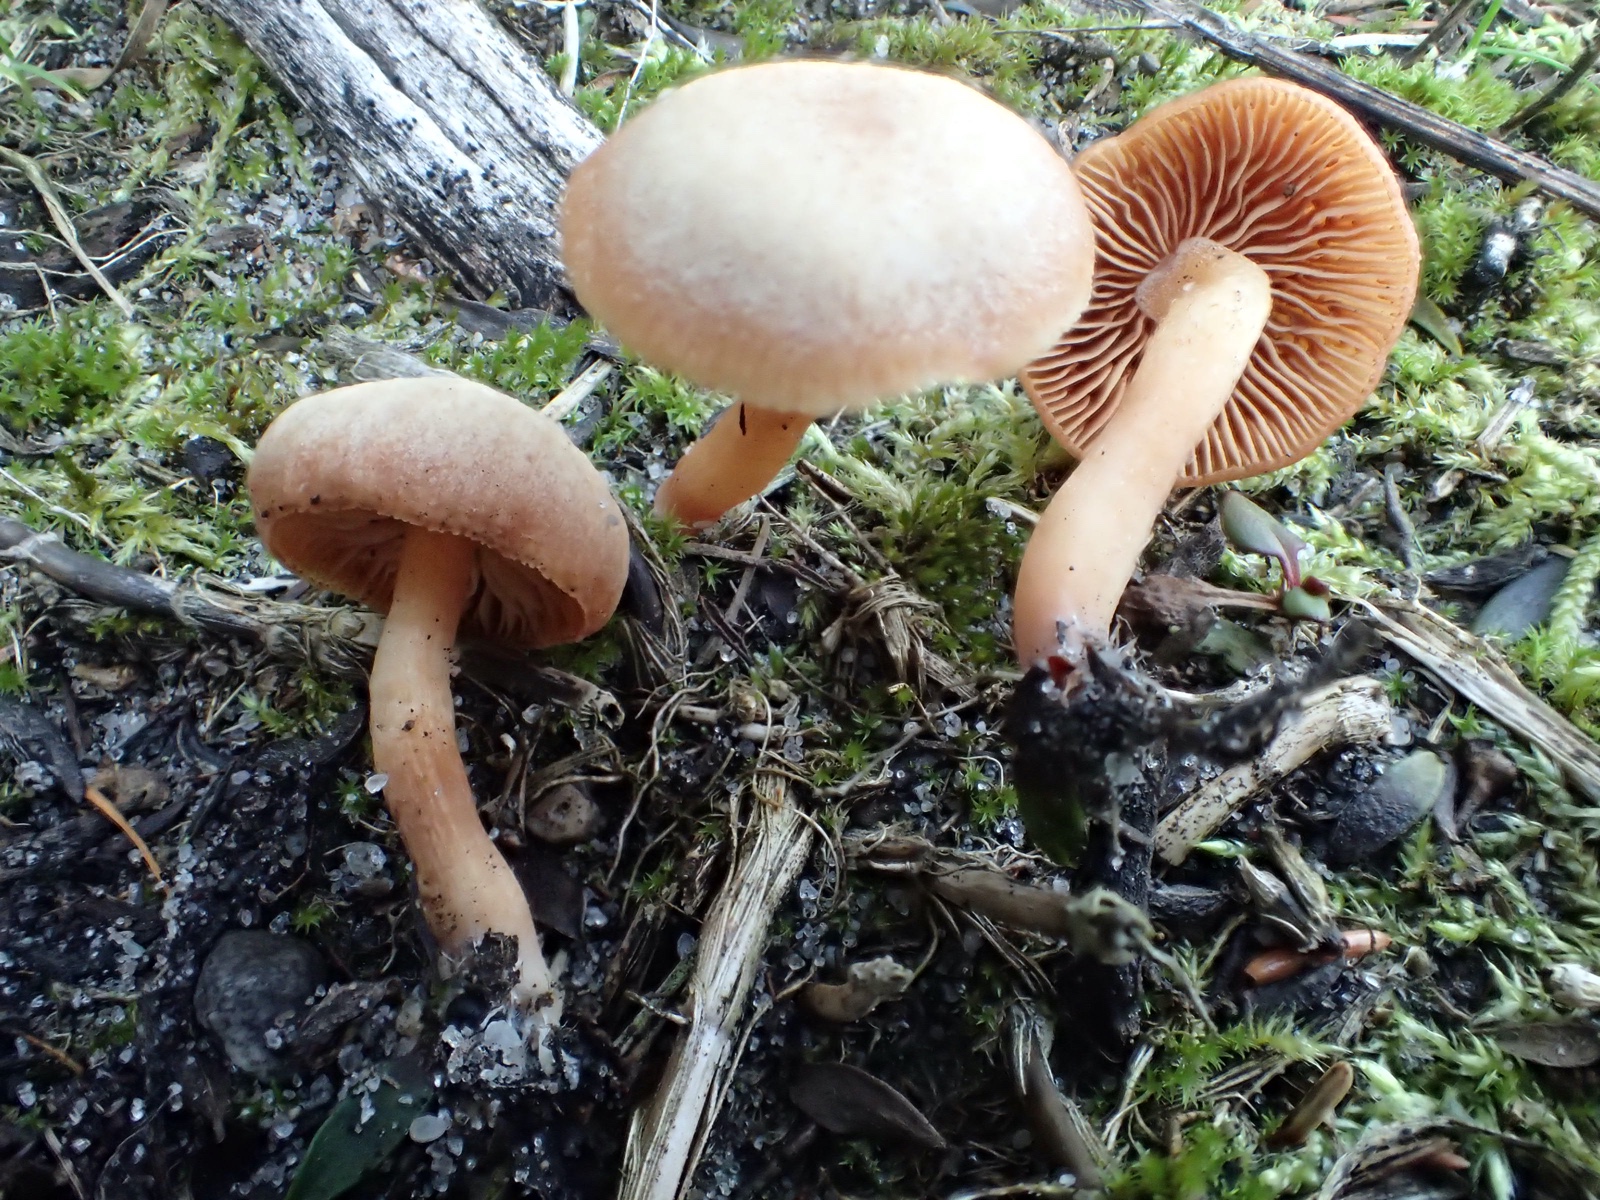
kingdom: Fungi
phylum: Basidiomycota
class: Agaricomycetes
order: Agaricales
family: Tubariaceae
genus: Tubaria
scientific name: Tubaria furfuracea
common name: kliddet fnughat
